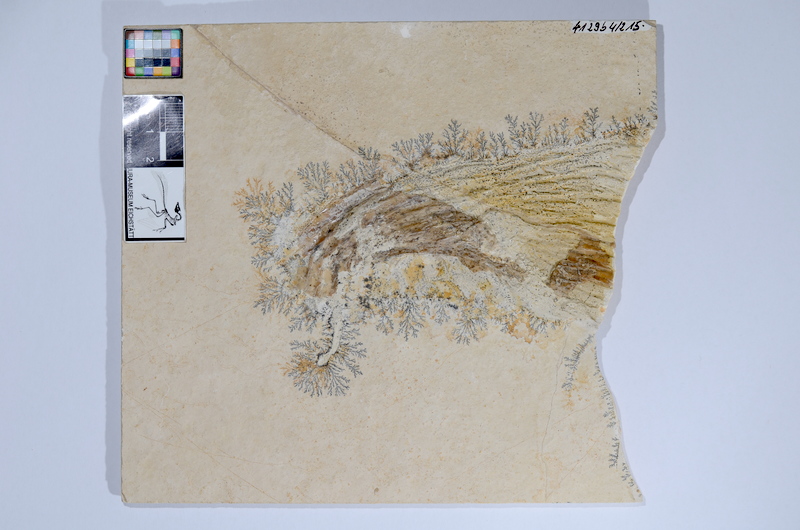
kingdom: Animalia
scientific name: Animalia
